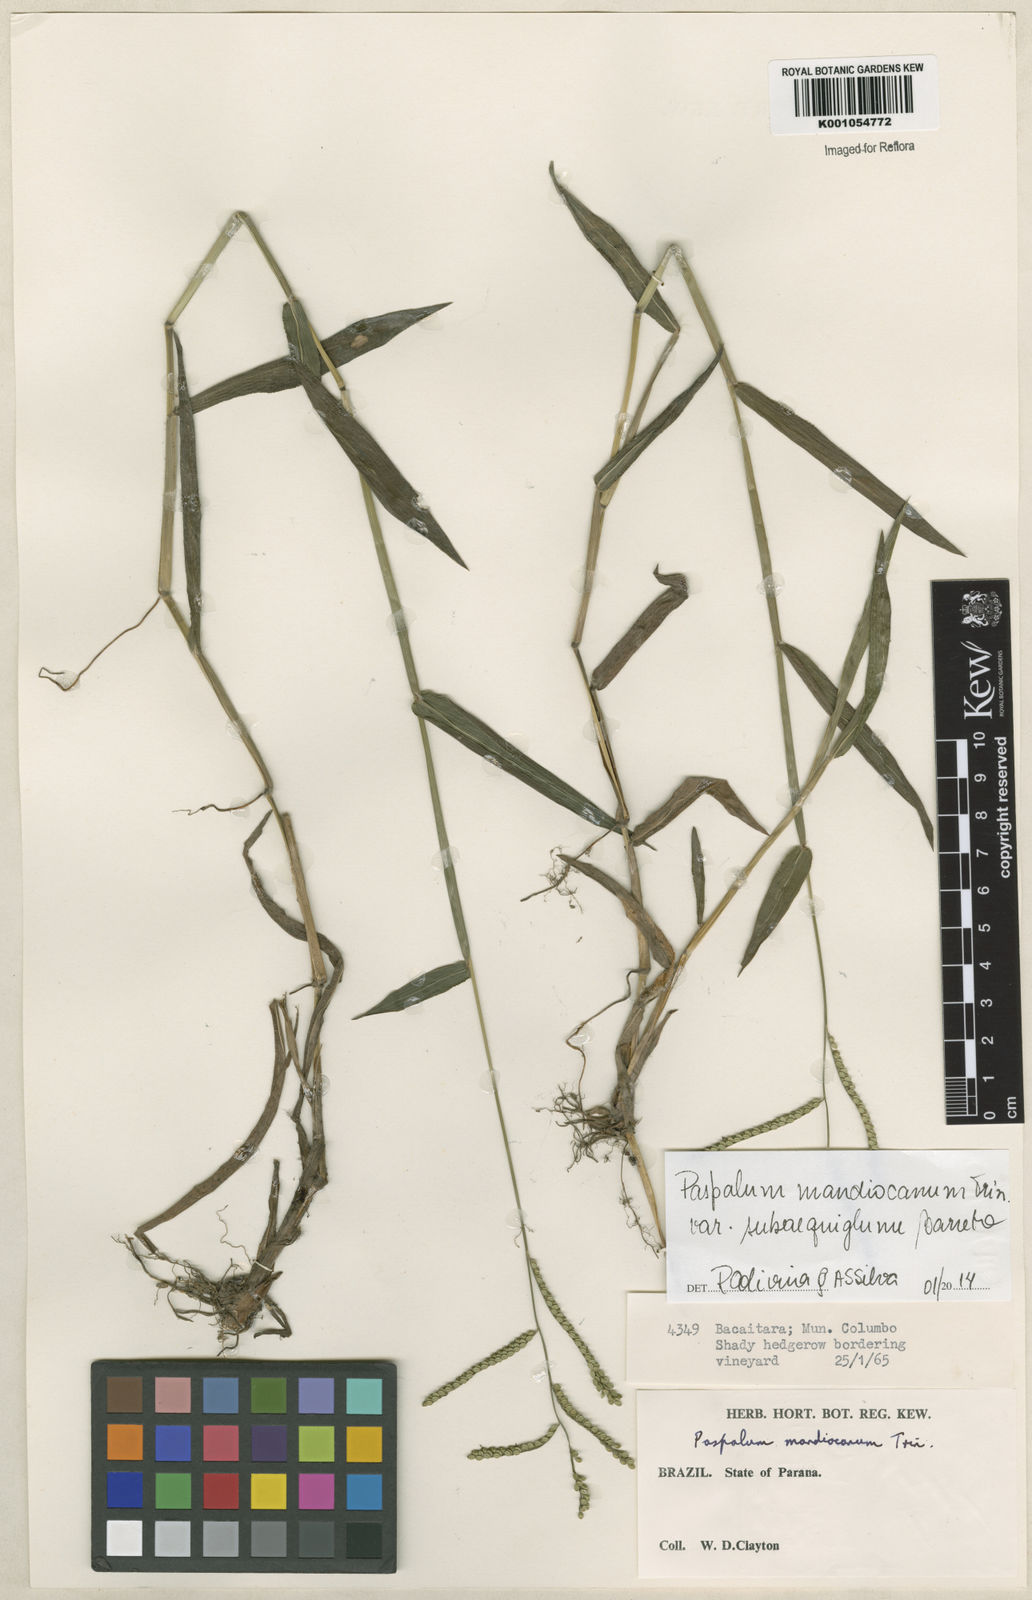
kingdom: Plantae
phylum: Tracheophyta
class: Liliopsida
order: Poales
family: Poaceae
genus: Paspalum
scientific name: Paspalum mandiocanum
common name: Paspalum
